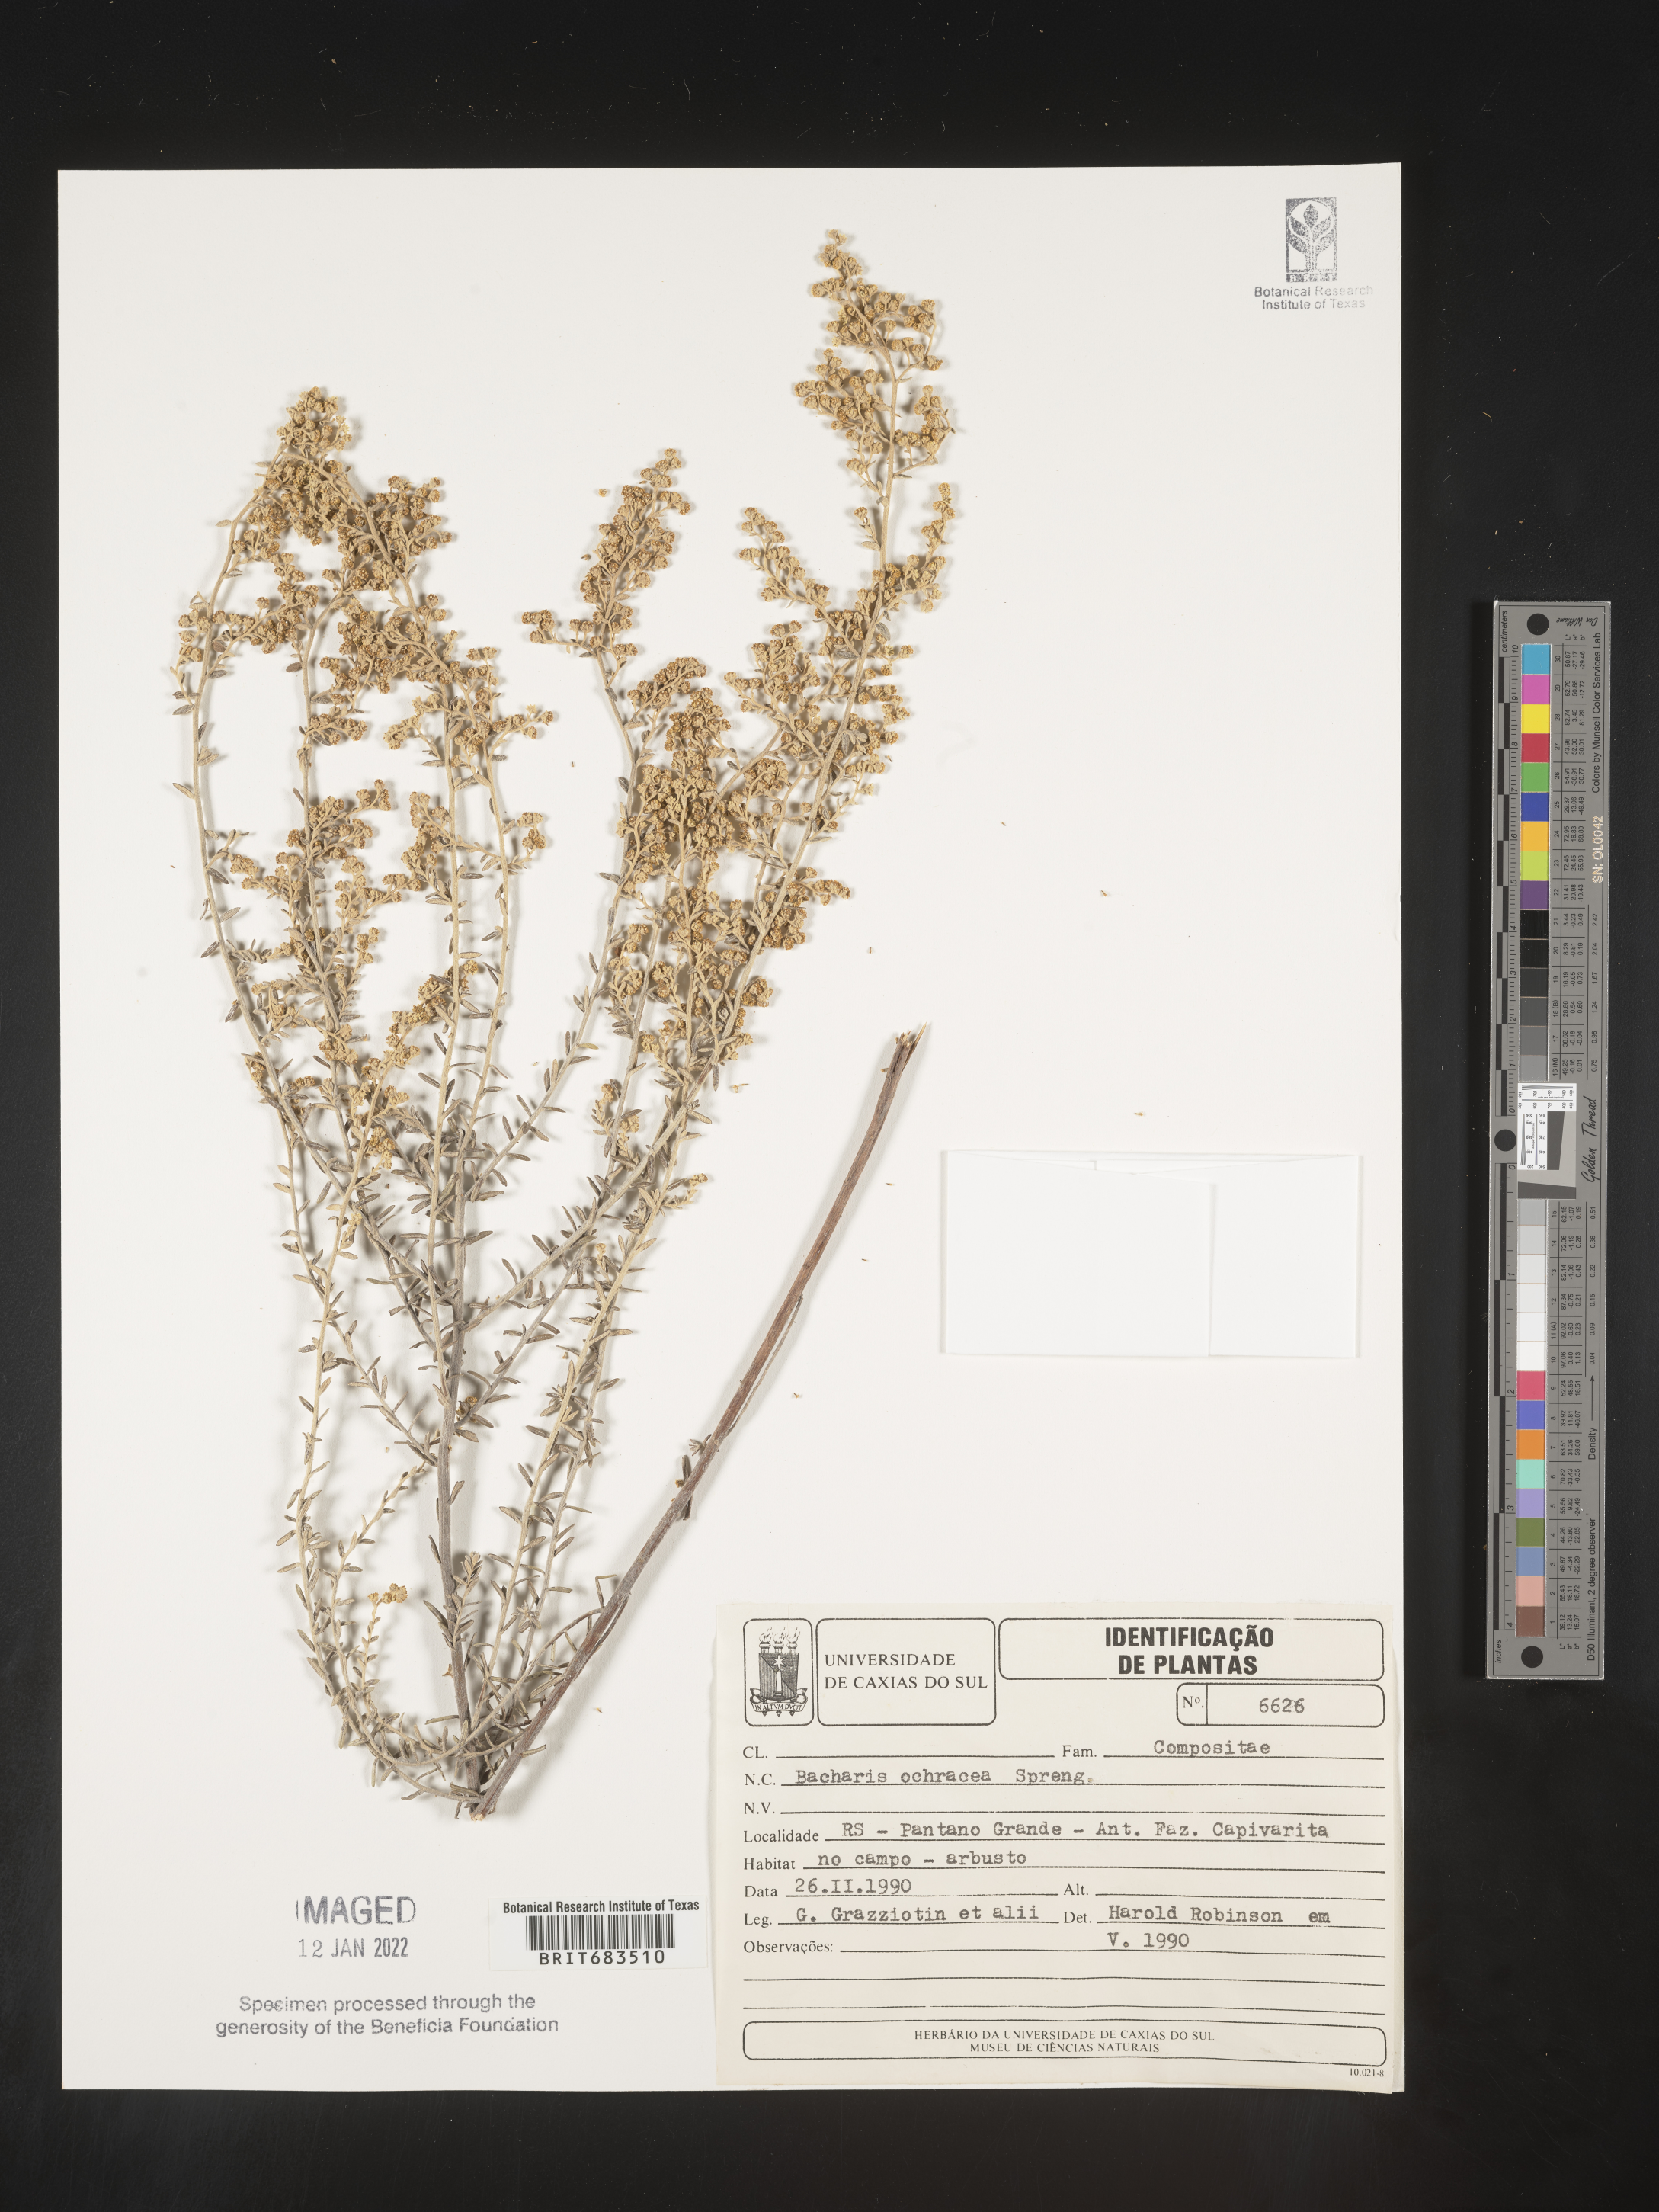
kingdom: Plantae
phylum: Tracheophyta
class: Magnoliopsida
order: Asterales
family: Asteraceae
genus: Baccharis
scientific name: Baccharis
